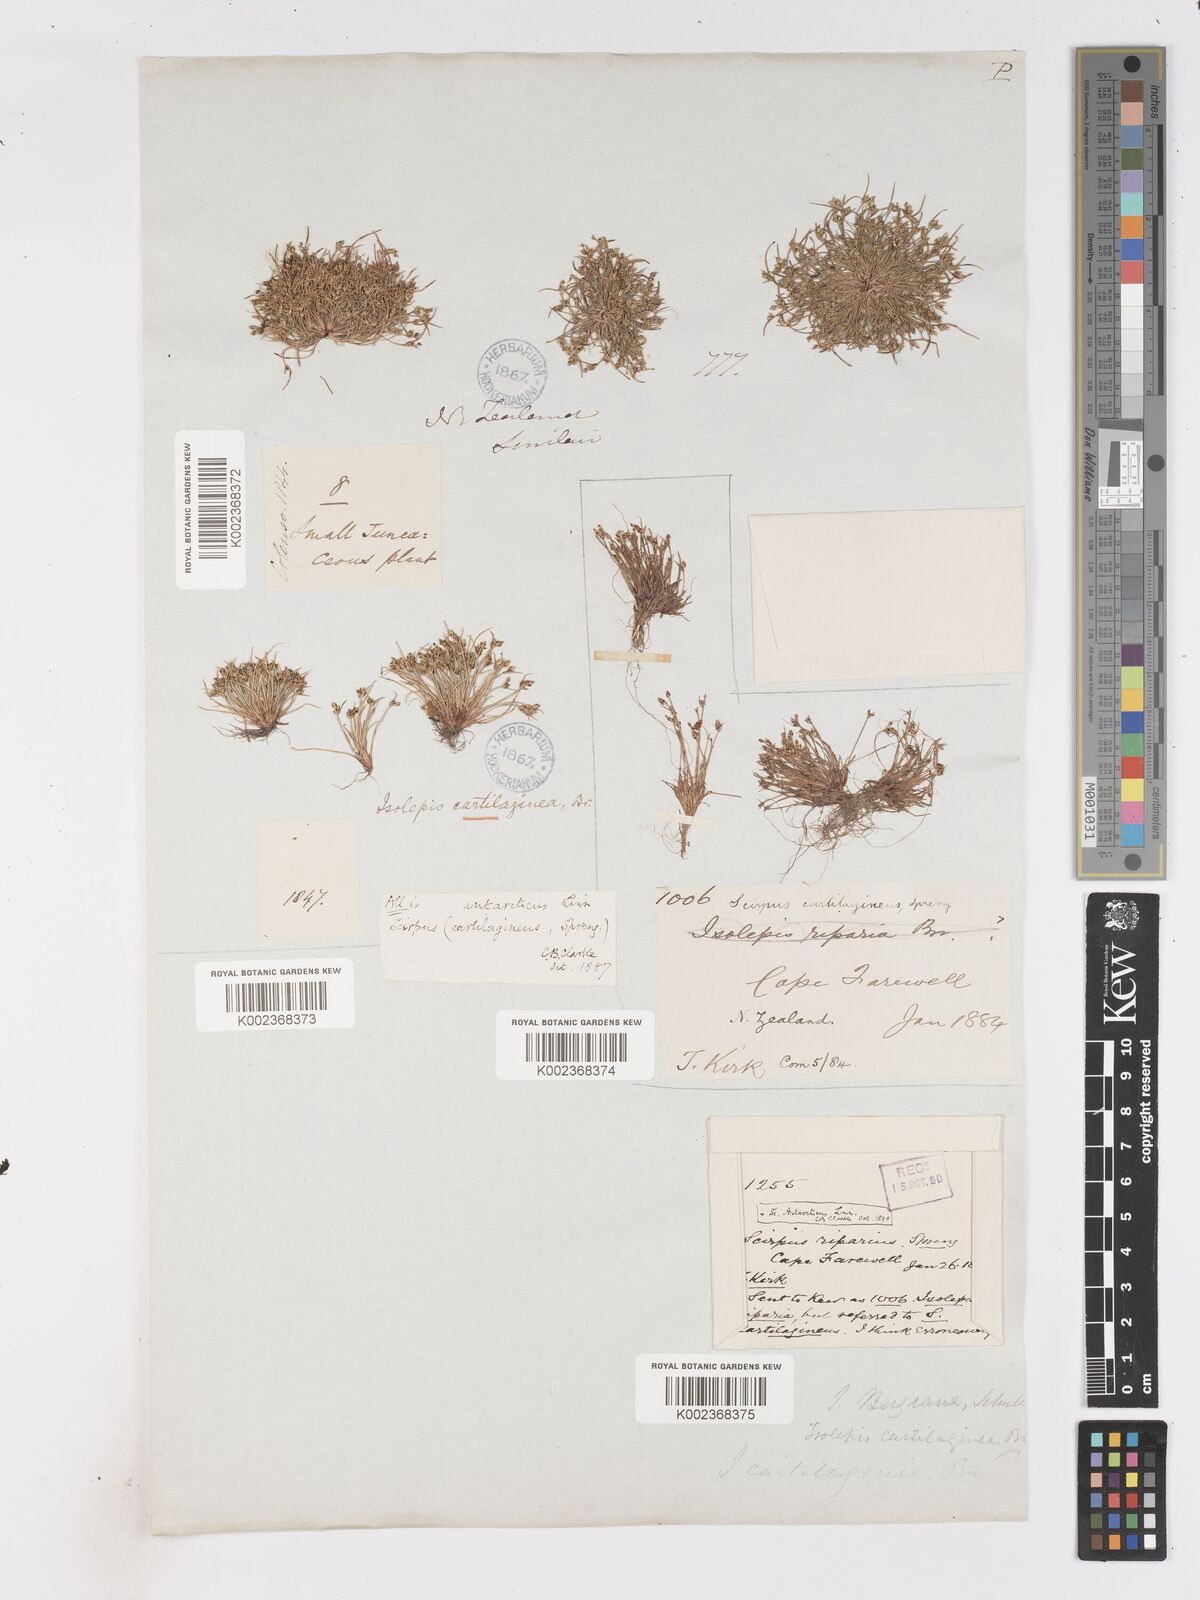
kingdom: Plantae
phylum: Tracheophyta
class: Liliopsida
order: Poales
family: Cyperaceae
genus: Isolepis
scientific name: Isolepis marginata
